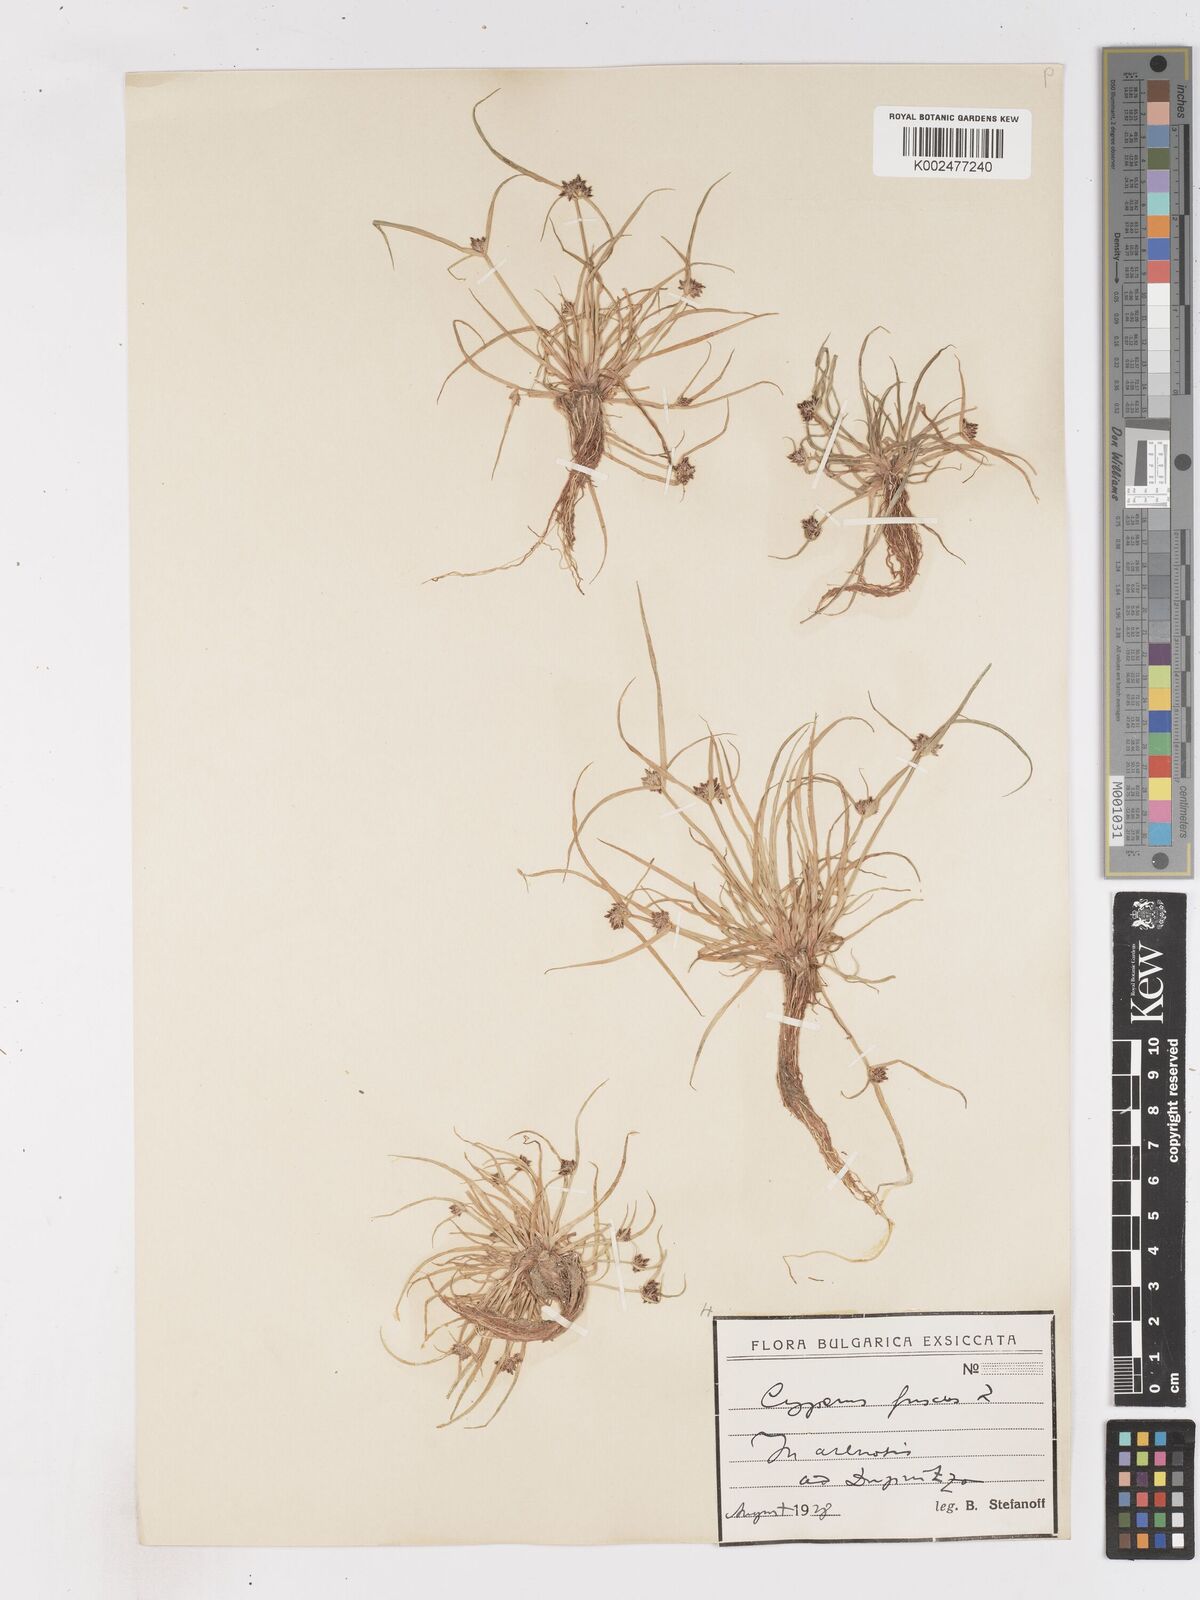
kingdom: Plantae
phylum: Tracheophyta
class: Liliopsida
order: Poales
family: Cyperaceae
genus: Cyperus
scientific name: Cyperus fuscus
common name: Brown galingale
